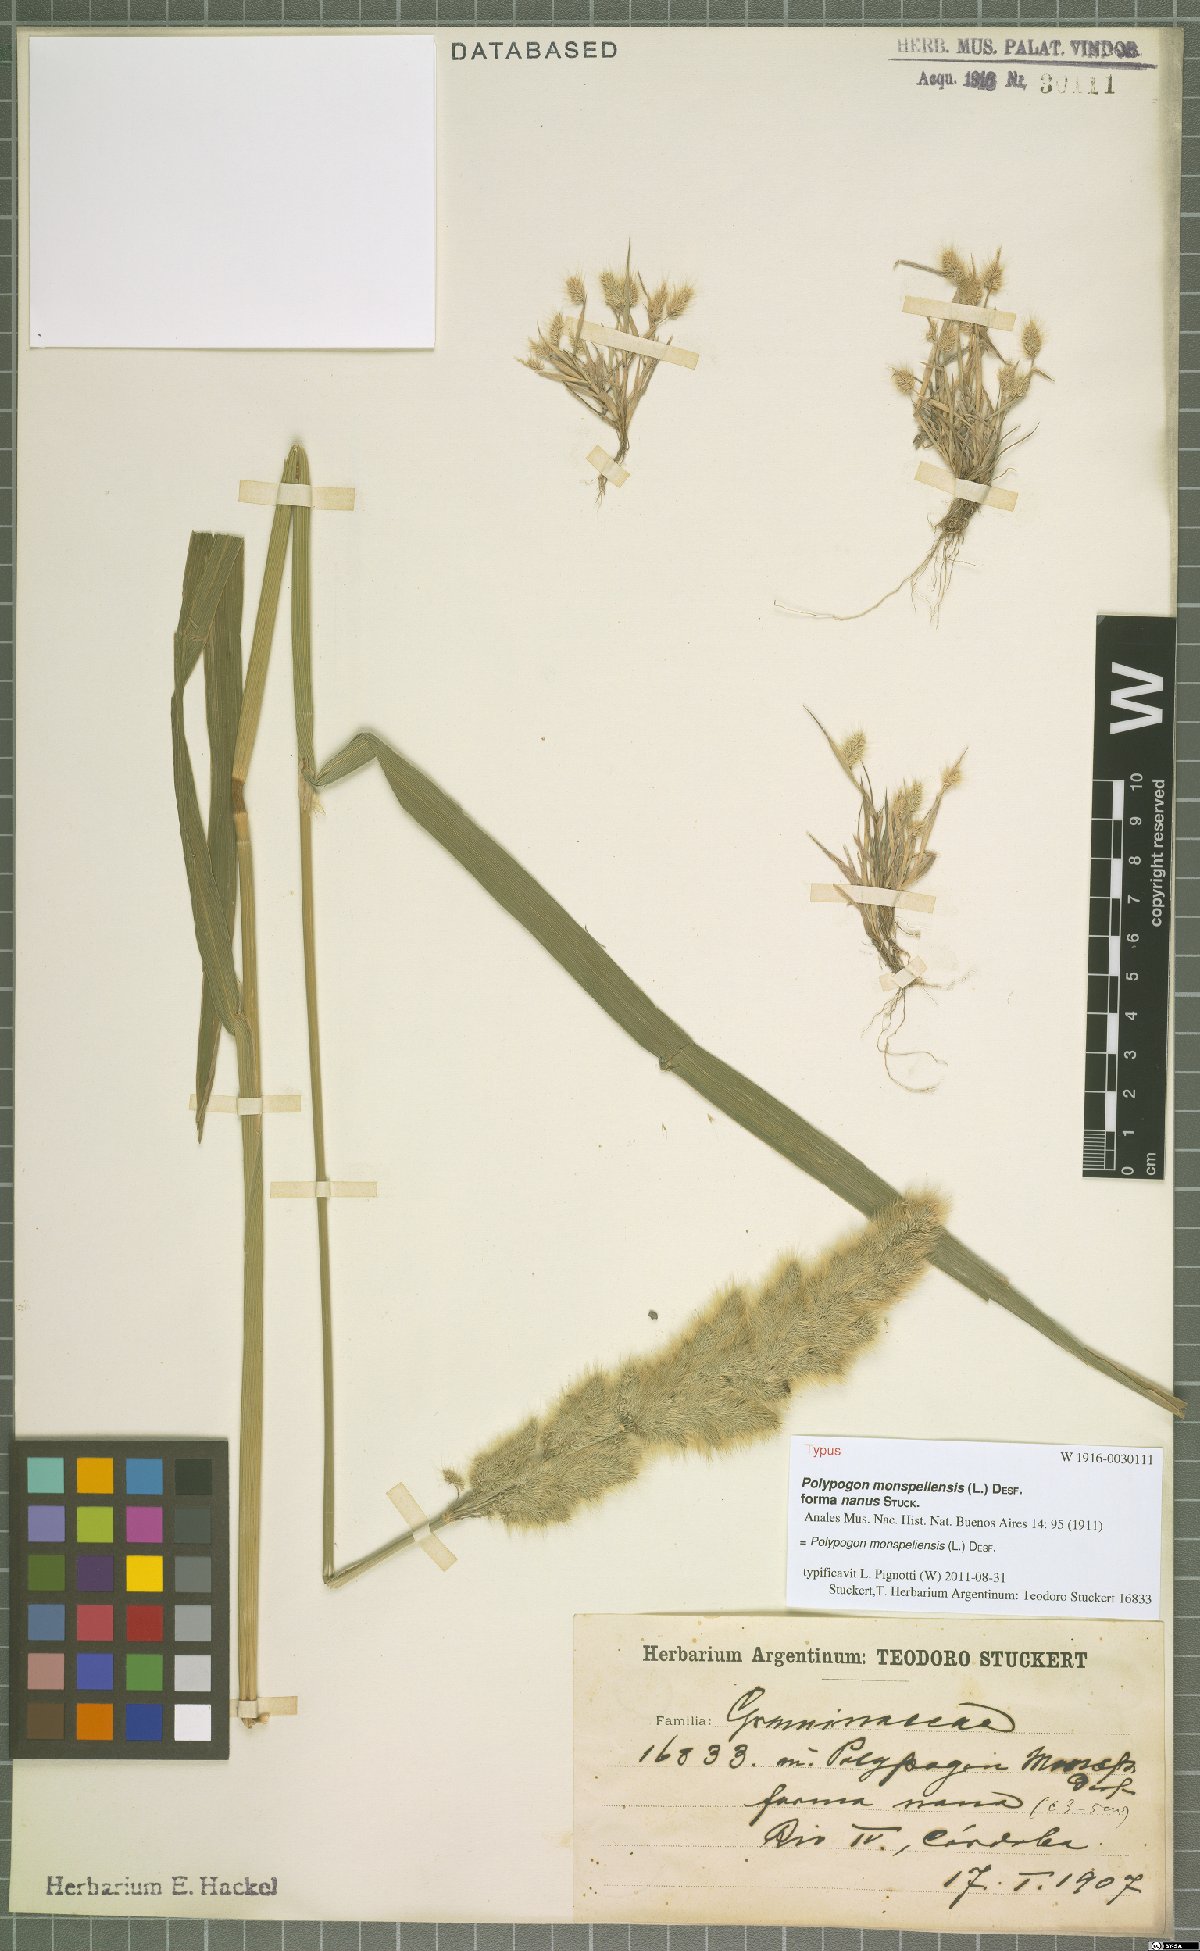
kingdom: Plantae
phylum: Tracheophyta
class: Liliopsida
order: Poales
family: Poaceae
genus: Polypogon
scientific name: Polypogon monspeliensis
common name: Annual rabbitsfoot grass
